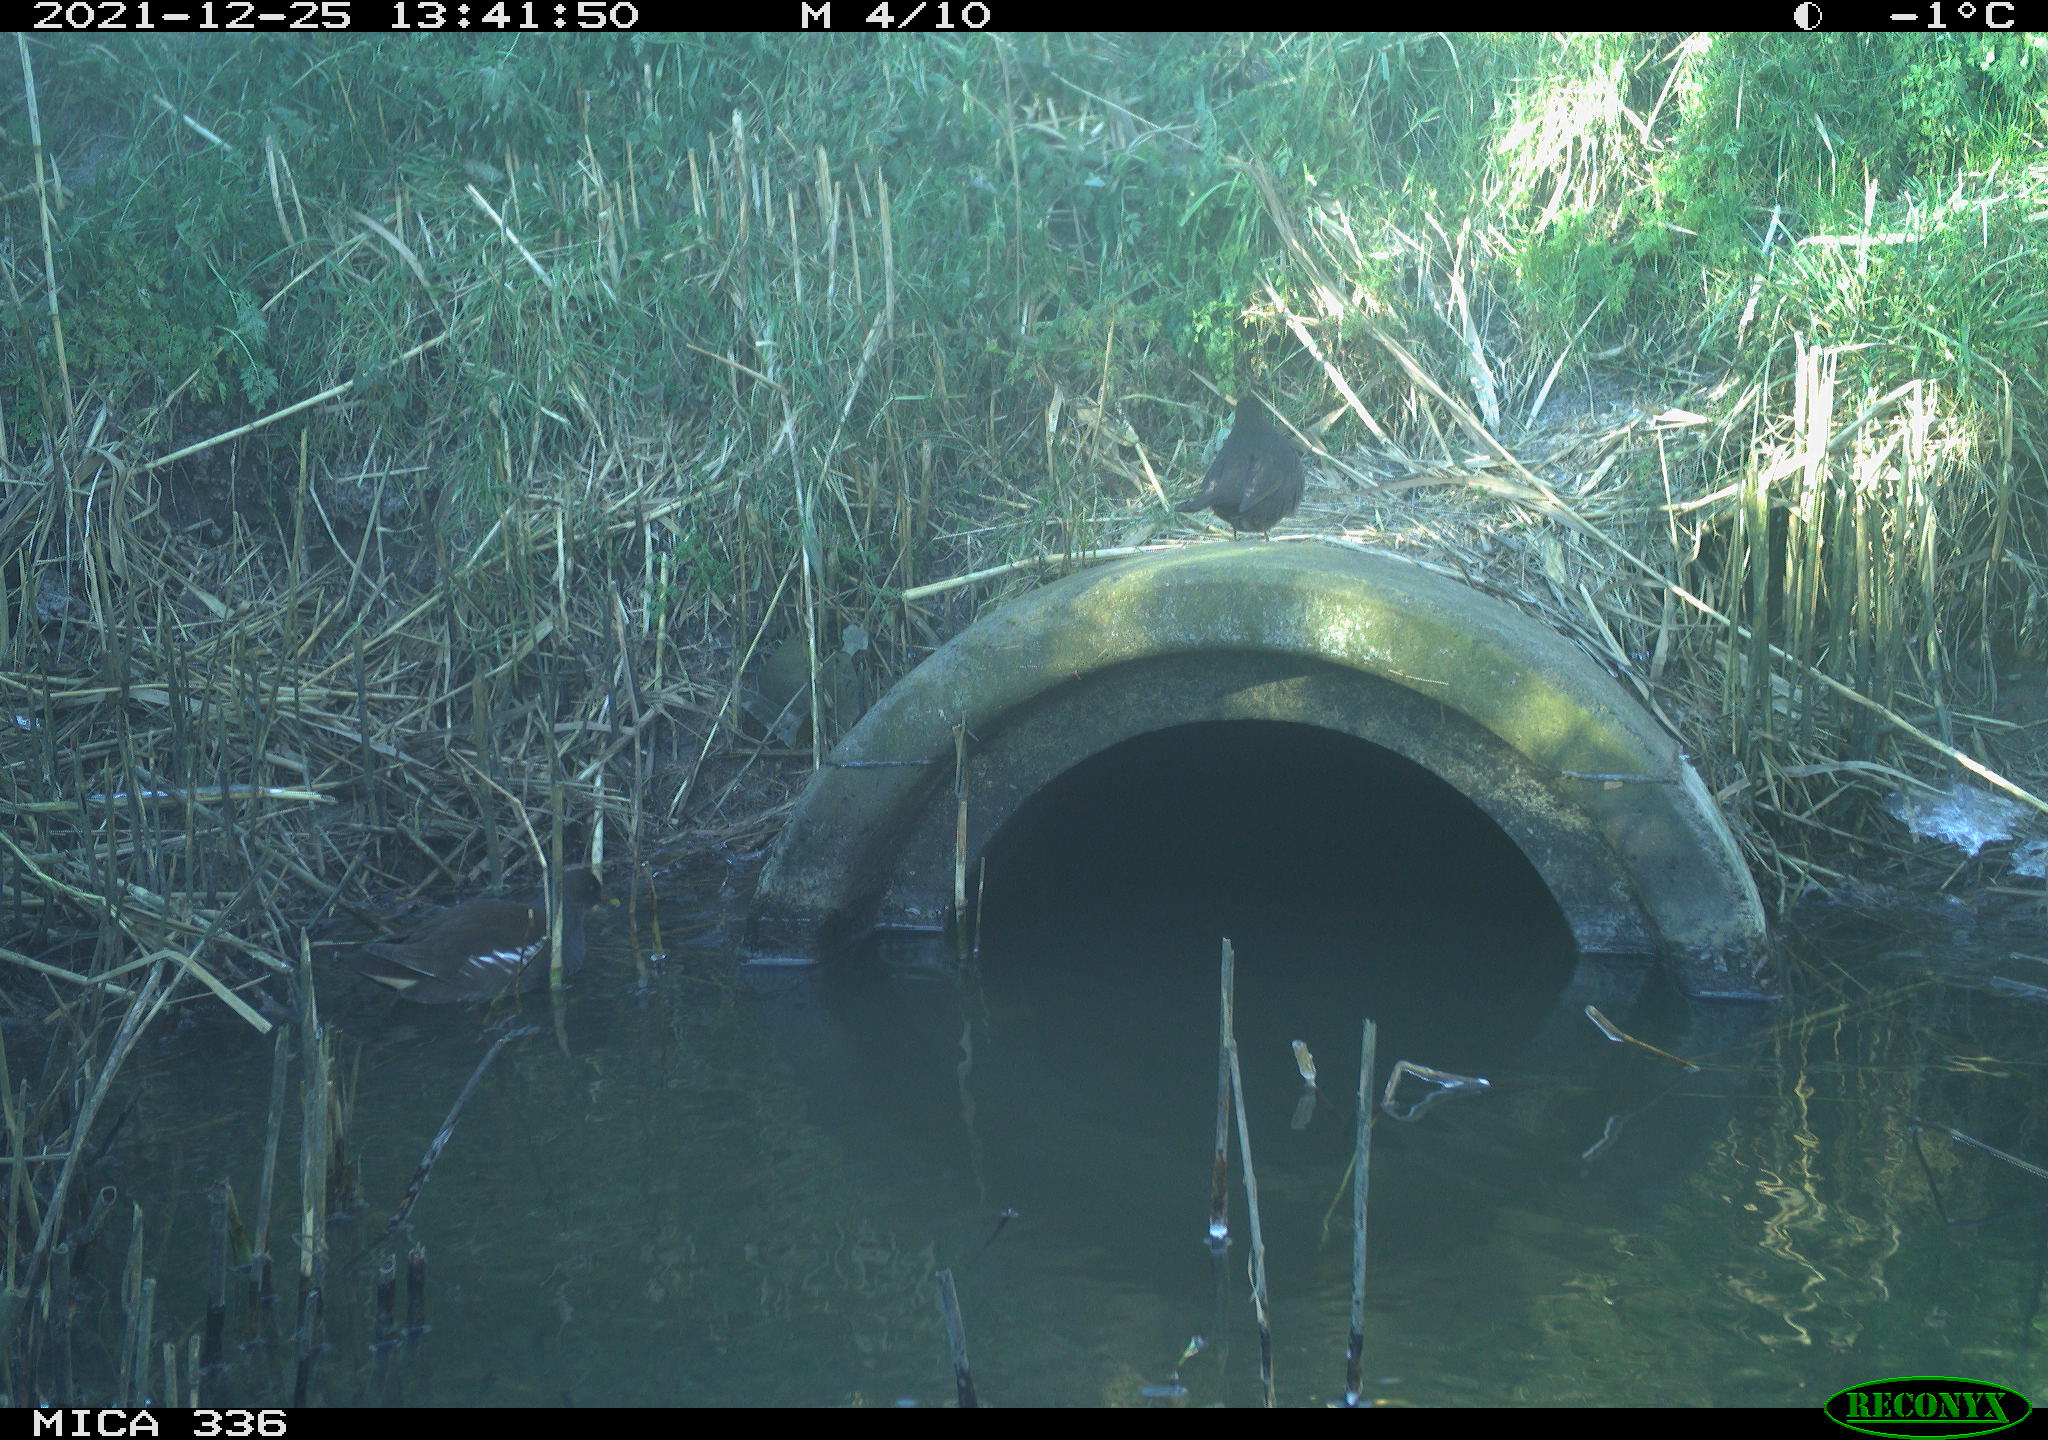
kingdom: Animalia
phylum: Chordata
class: Aves
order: Gruiformes
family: Rallidae
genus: Gallinula
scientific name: Gallinula chloropus
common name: Common moorhen
